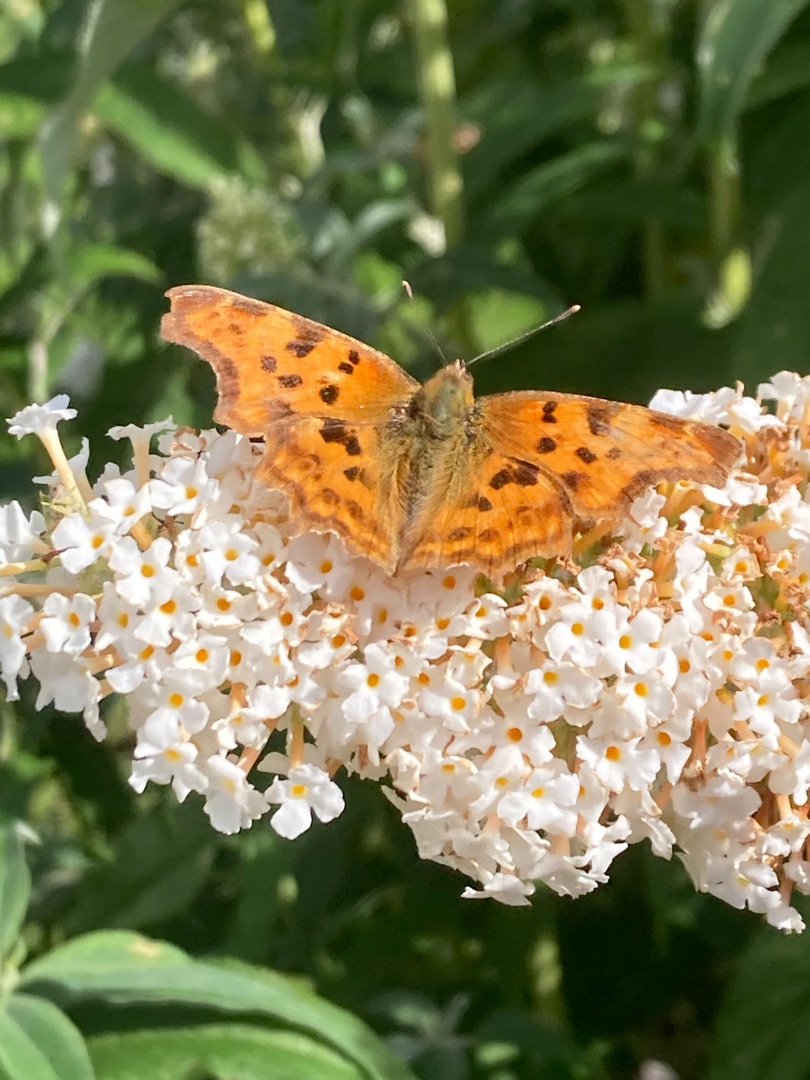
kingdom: Animalia
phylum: Arthropoda
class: Insecta
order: Lepidoptera
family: Nymphalidae
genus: Polygonia
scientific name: Polygonia c-album
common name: Det hvide C
